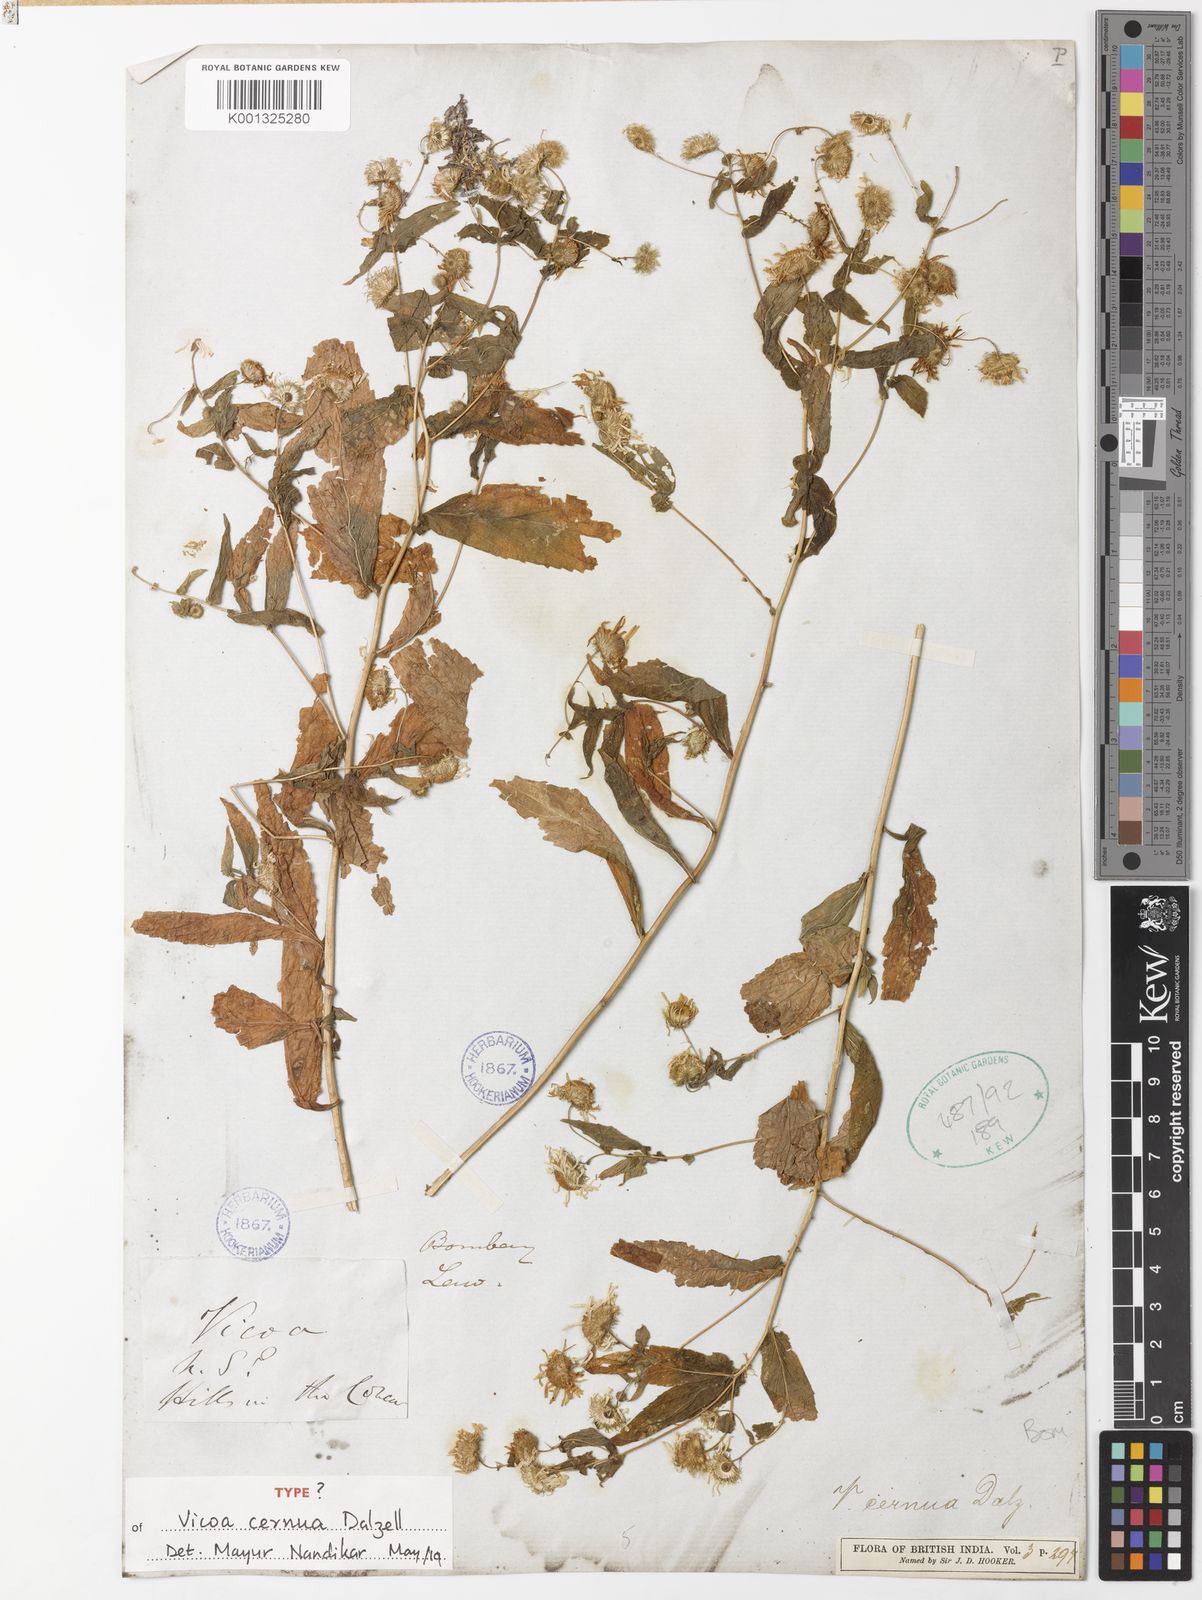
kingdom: Plantae
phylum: Tracheophyta
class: Magnoliopsida
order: Asterales
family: Asteraceae
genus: Vicoa
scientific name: Vicoa cernua
